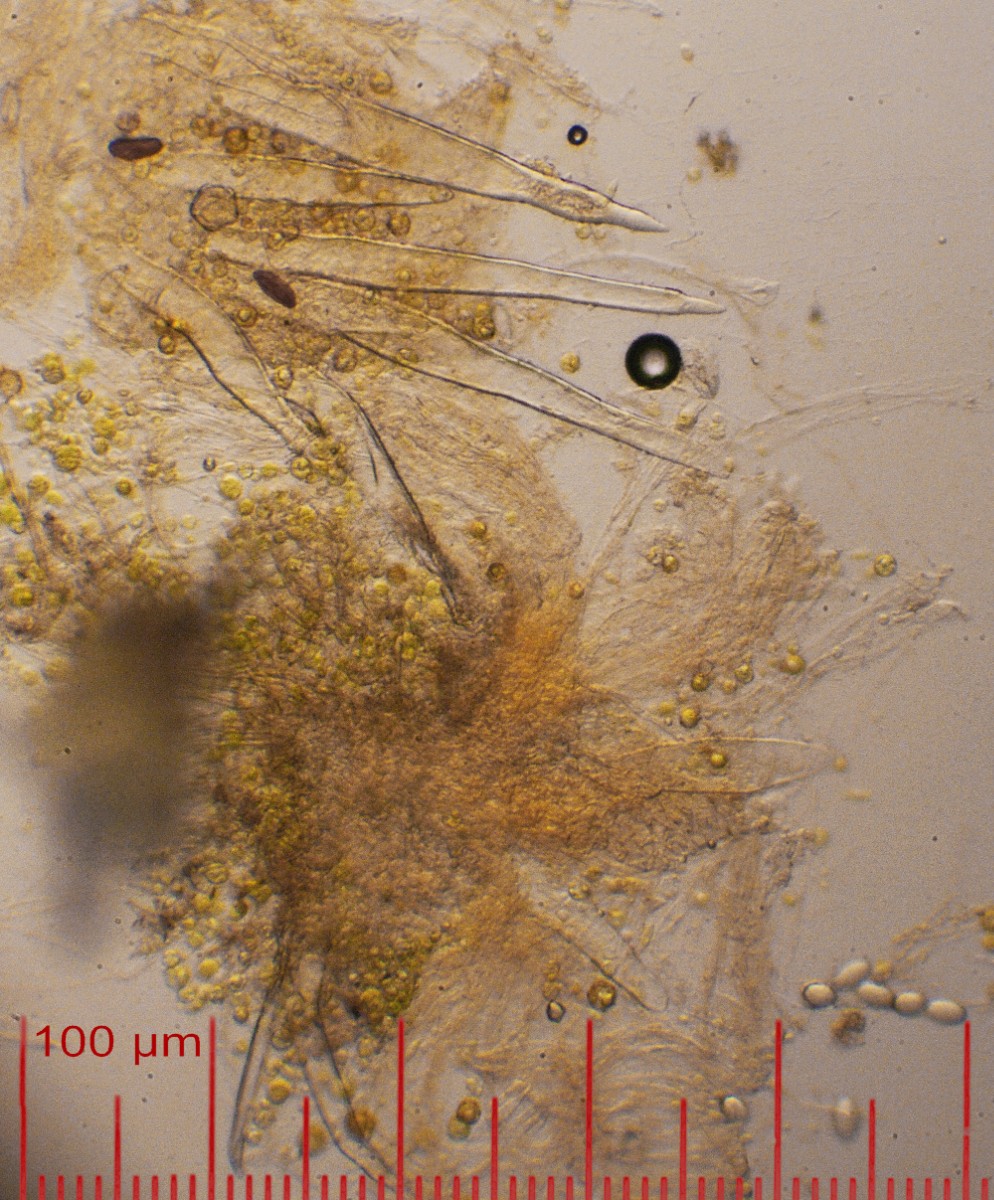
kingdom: Fungi
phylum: Ascomycota
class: Pezizomycetes
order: Pezizales
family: Ascodesmidaceae
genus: Lasiobolus
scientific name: Lasiobolus papillatus
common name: enradet øjebæger
